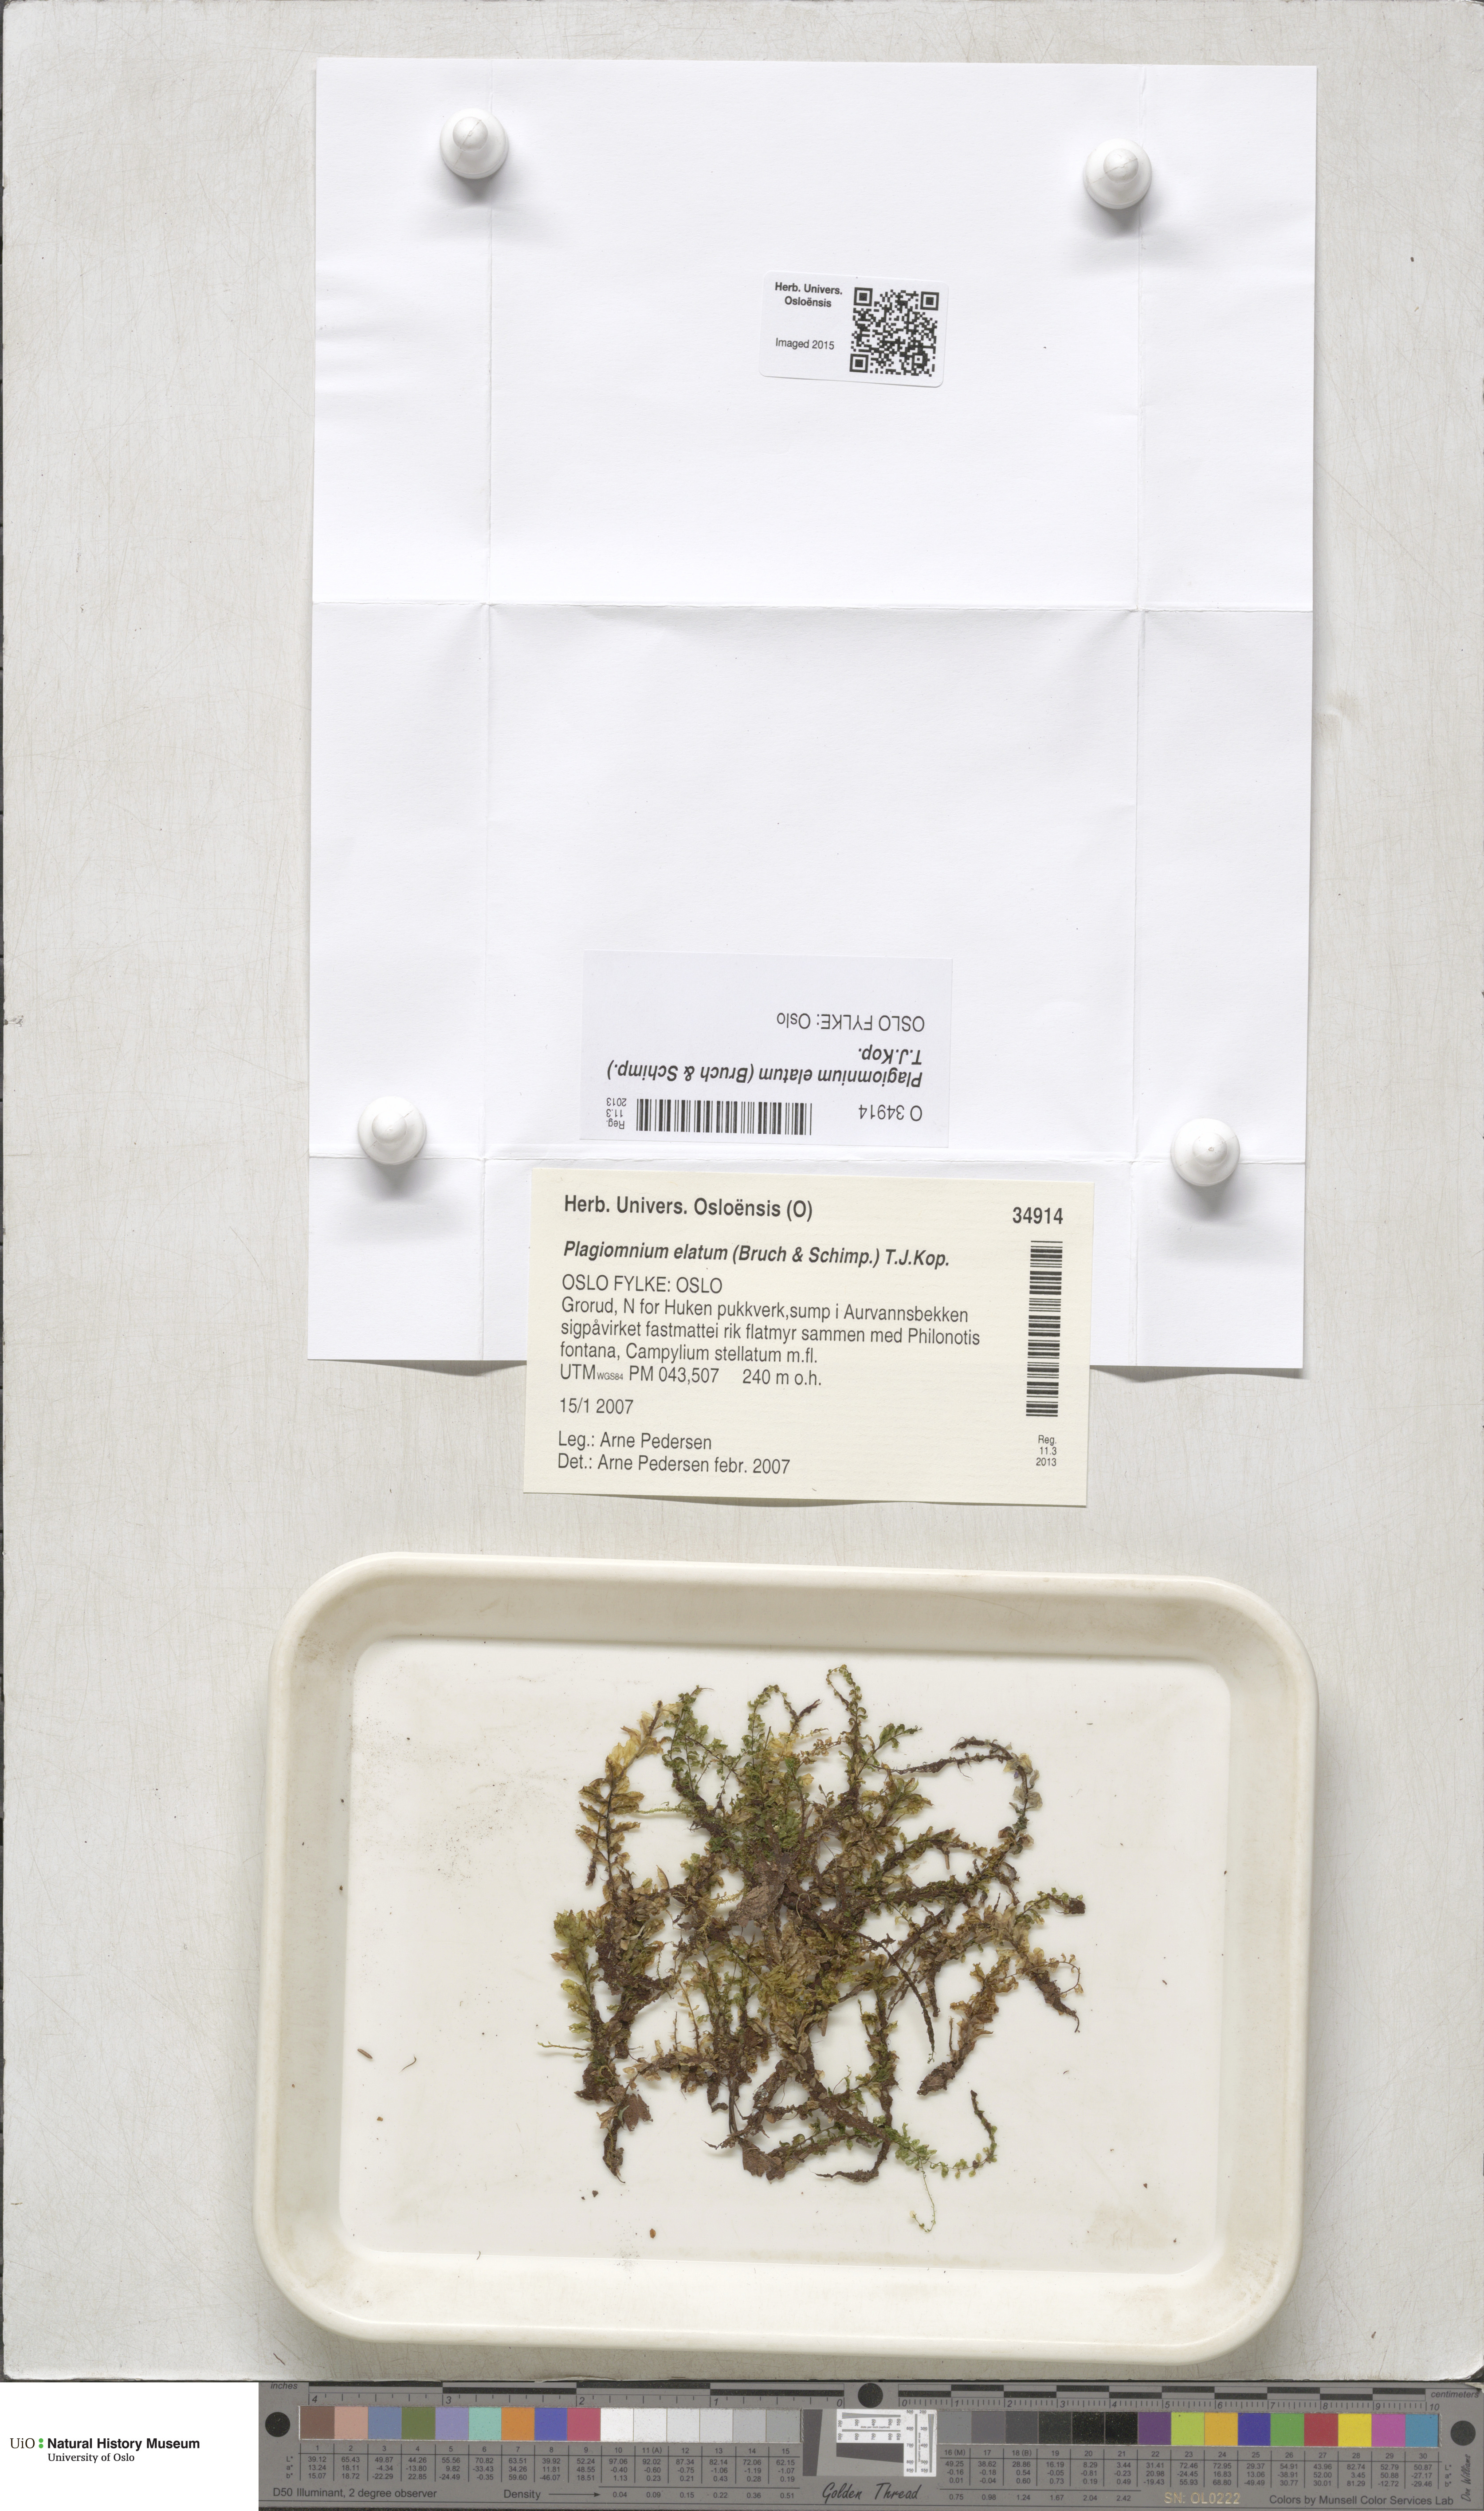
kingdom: Plantae
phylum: Bryophyta
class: Bryopsida
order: Bryales
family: Mniaceae
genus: Plagiomnium
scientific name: Plagiomnium elatum
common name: Tall thyme-moss
